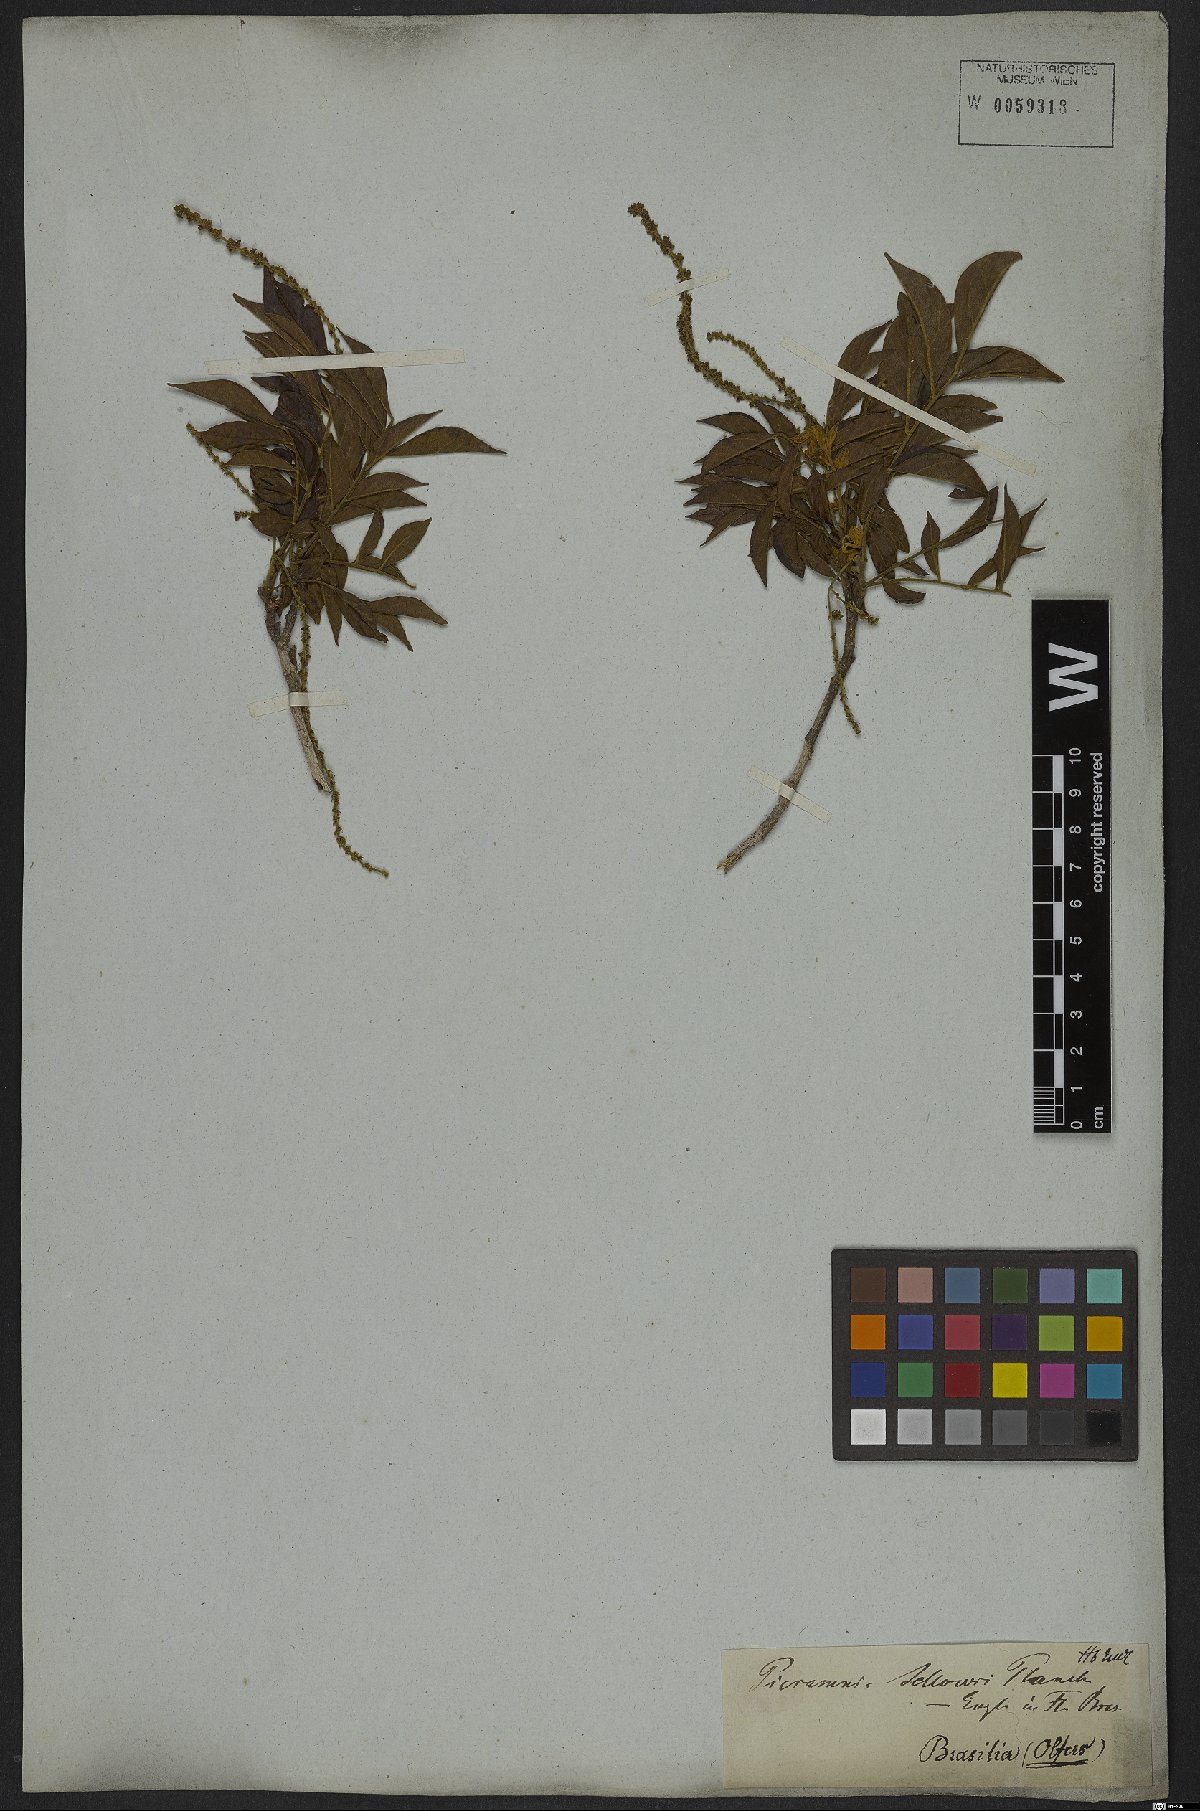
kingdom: Plantae
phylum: Tracheophyta
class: Magnoliopsida
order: Picramniales
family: Picramniaceae
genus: Picramnia
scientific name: Picramnia sellowii
